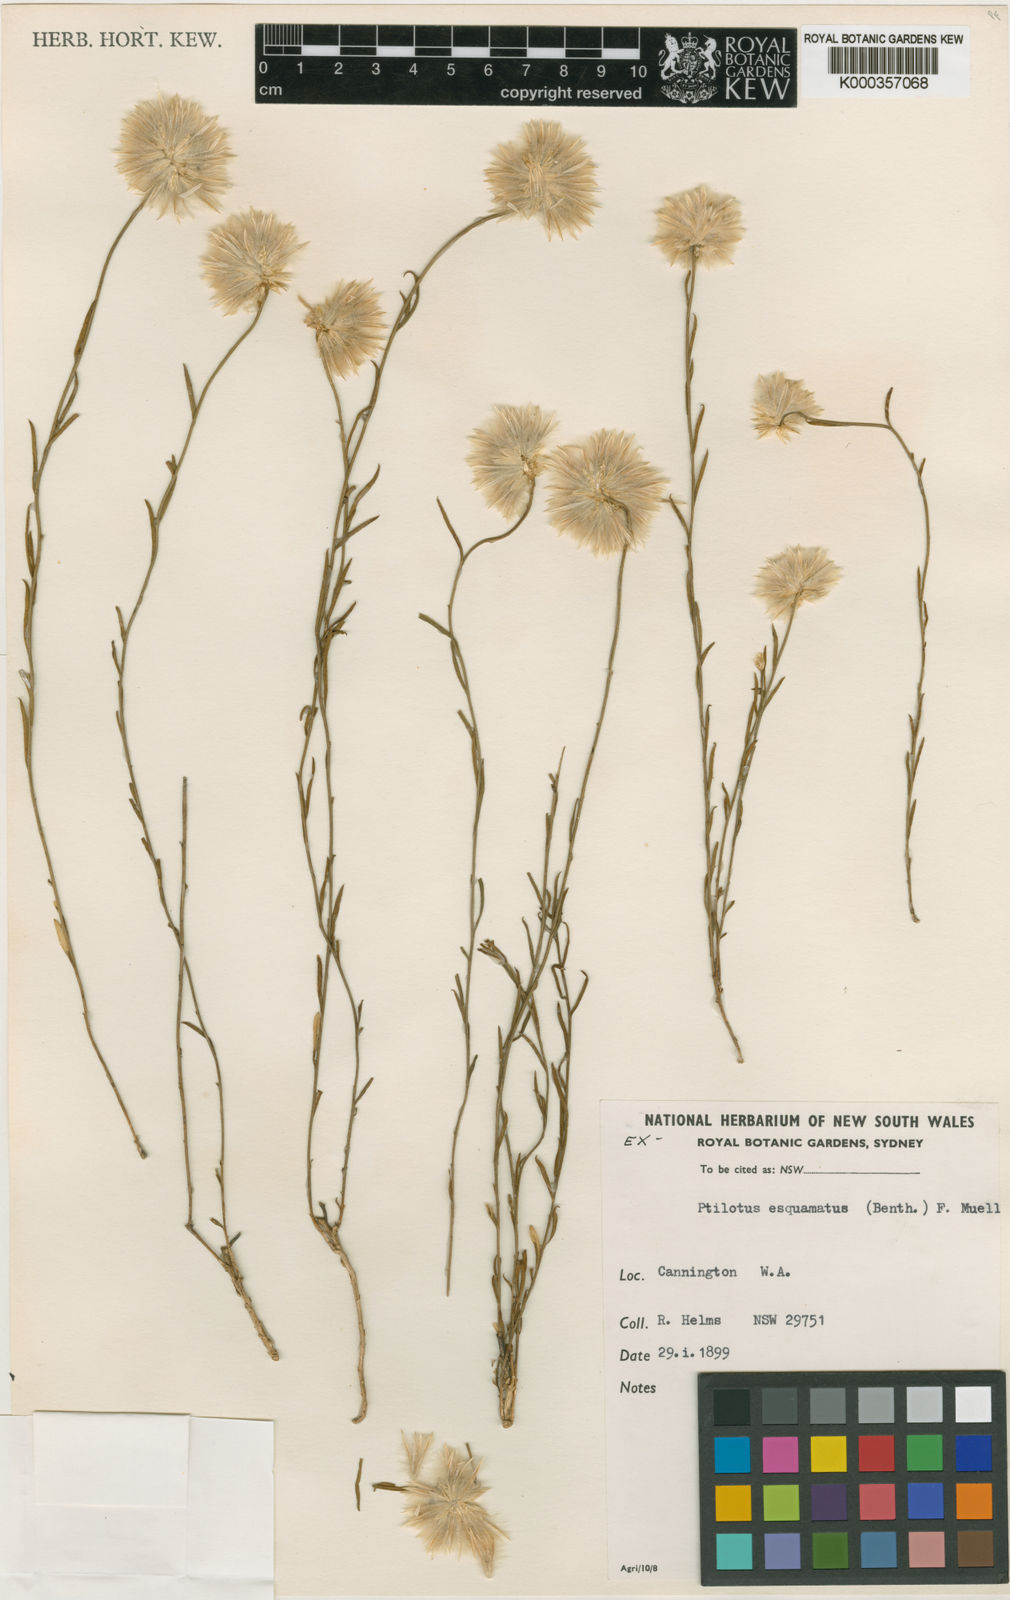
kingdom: Plantae
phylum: Tracheophyta
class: Magnoliopsida
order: Caryophyllales
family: Amaranthaceae
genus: Ptilotus
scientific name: Ptilotus esquamatus
